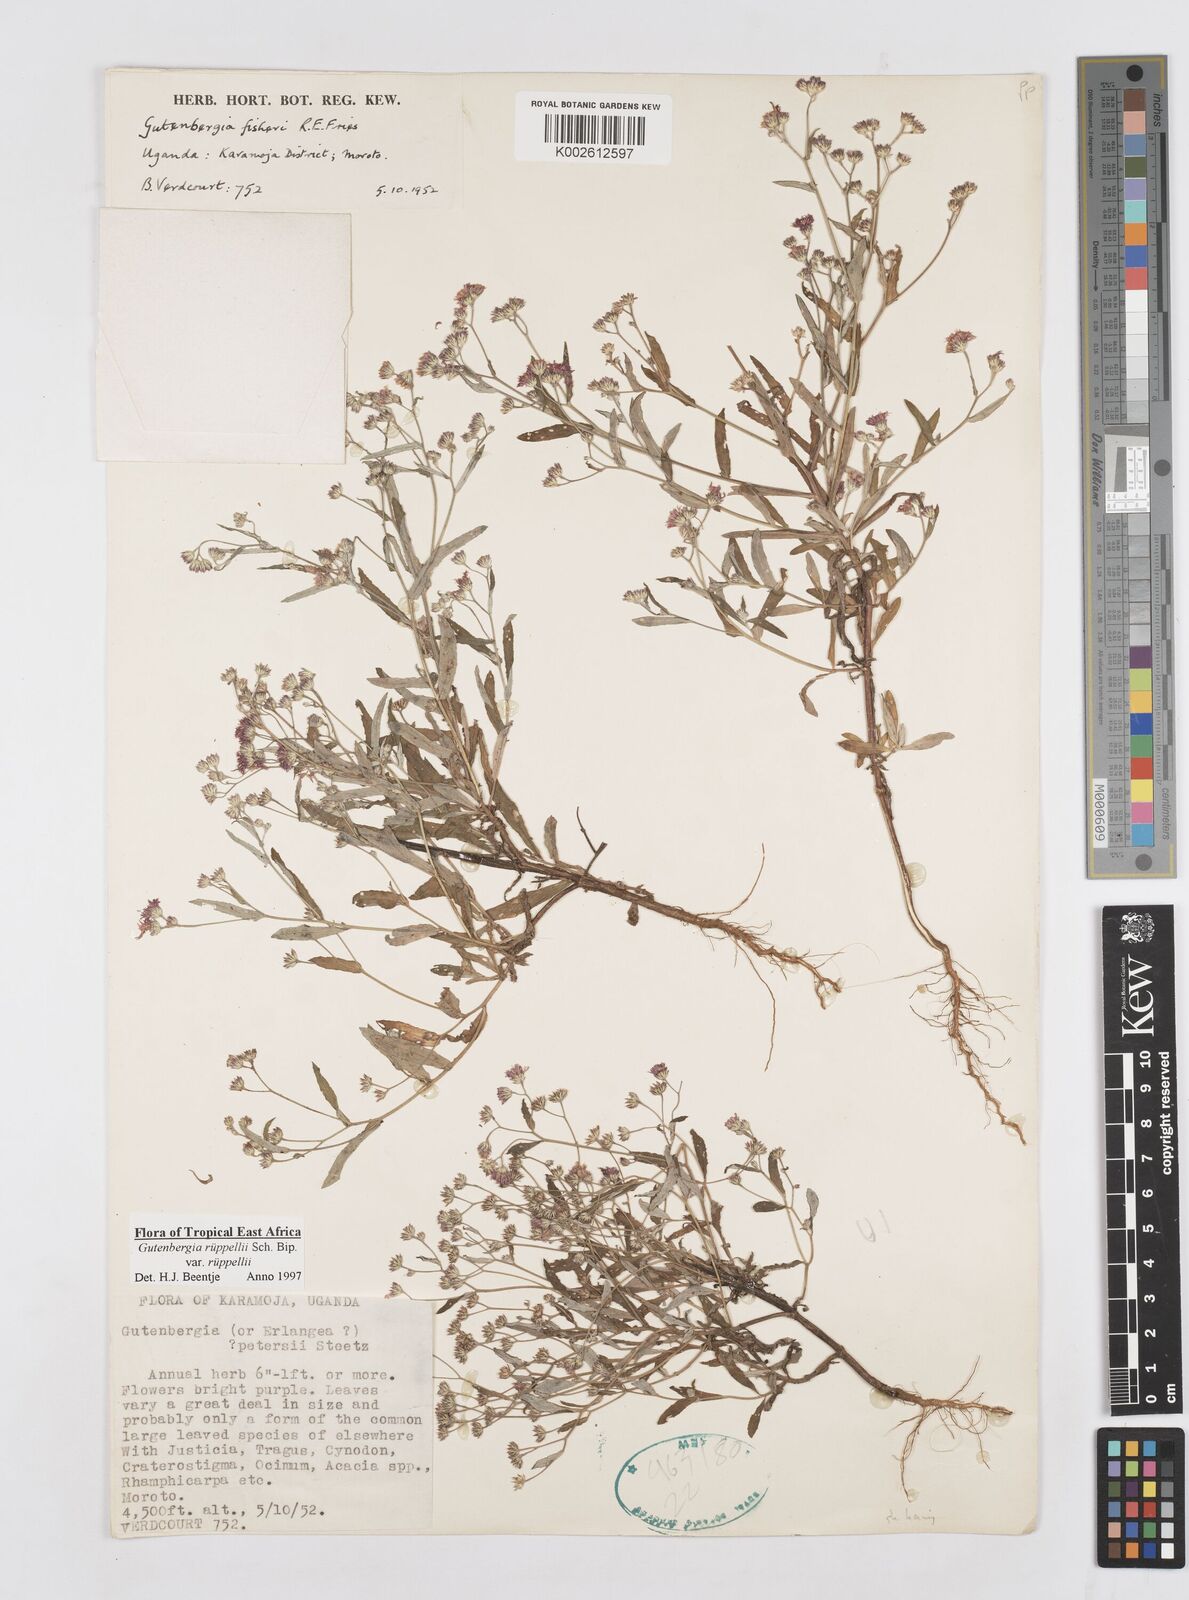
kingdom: Plantae
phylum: Tracheophyta
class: Magnoliopsida
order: Asterales
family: Asteraceae
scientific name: Asteraceae
